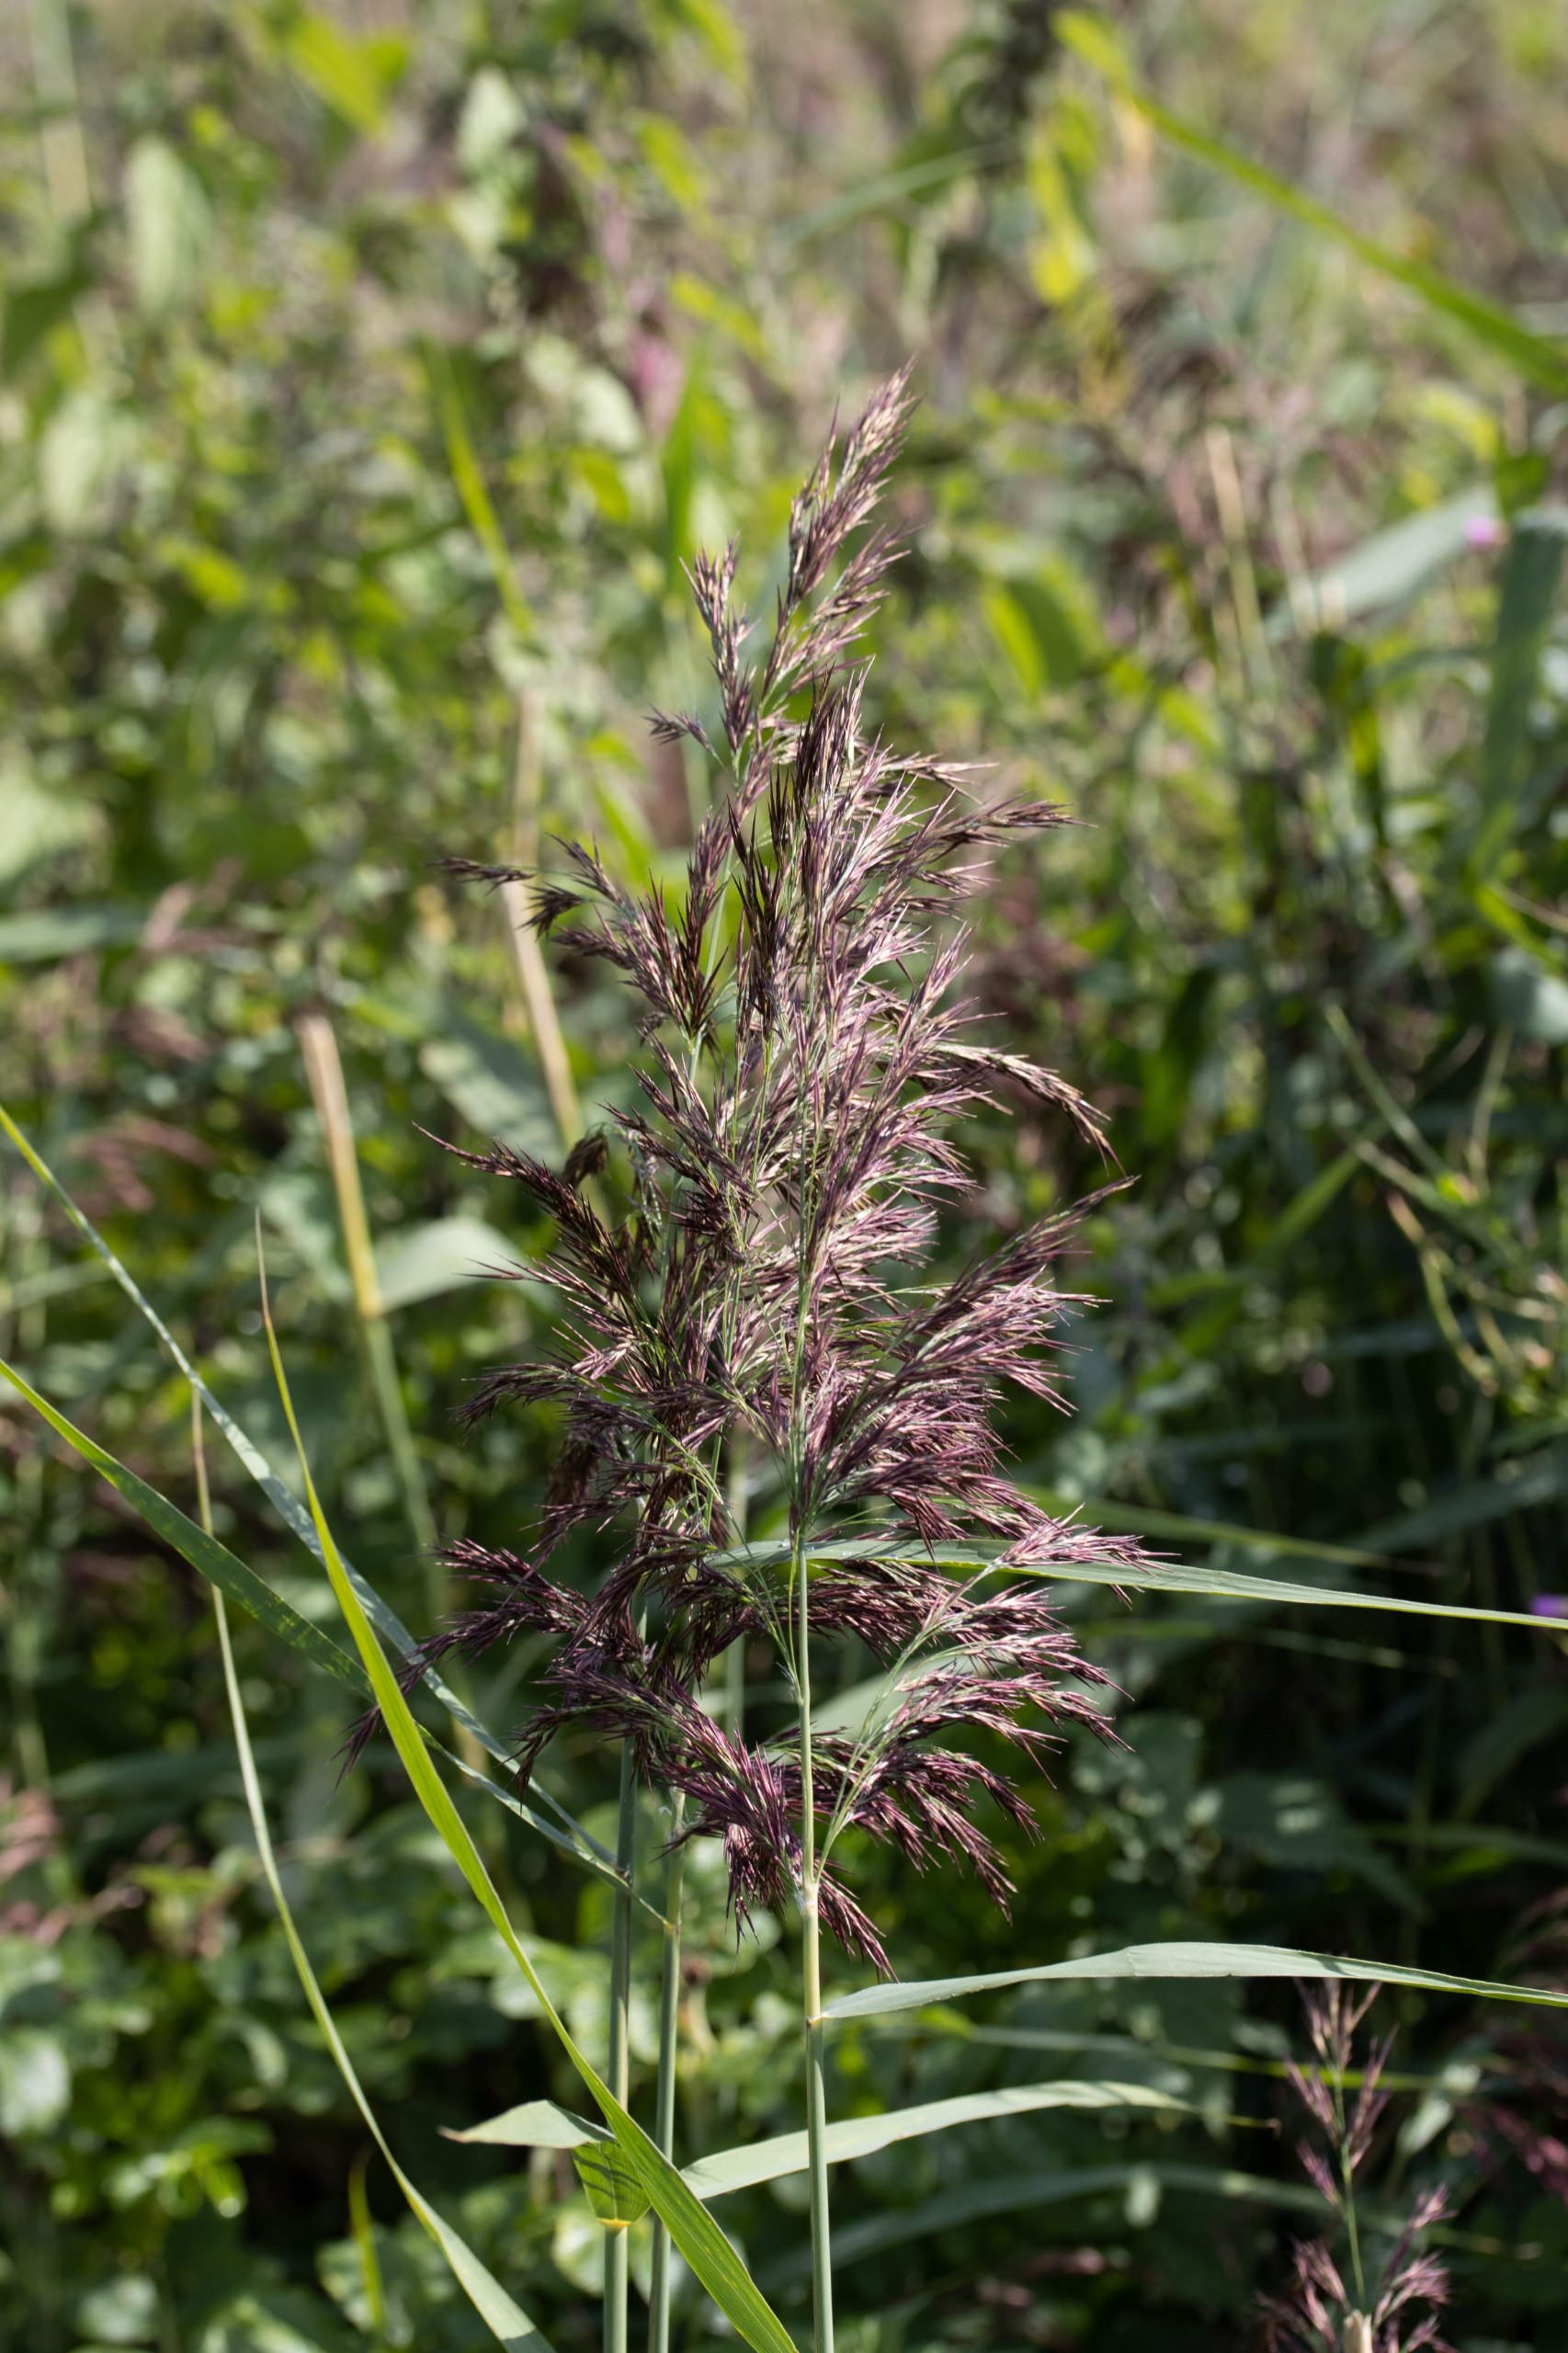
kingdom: Plantae
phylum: Tracheophyta
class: Liliopsida
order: Poales
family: Poaceae
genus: Phragmites
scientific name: Phragmites australis
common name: Tagrør
